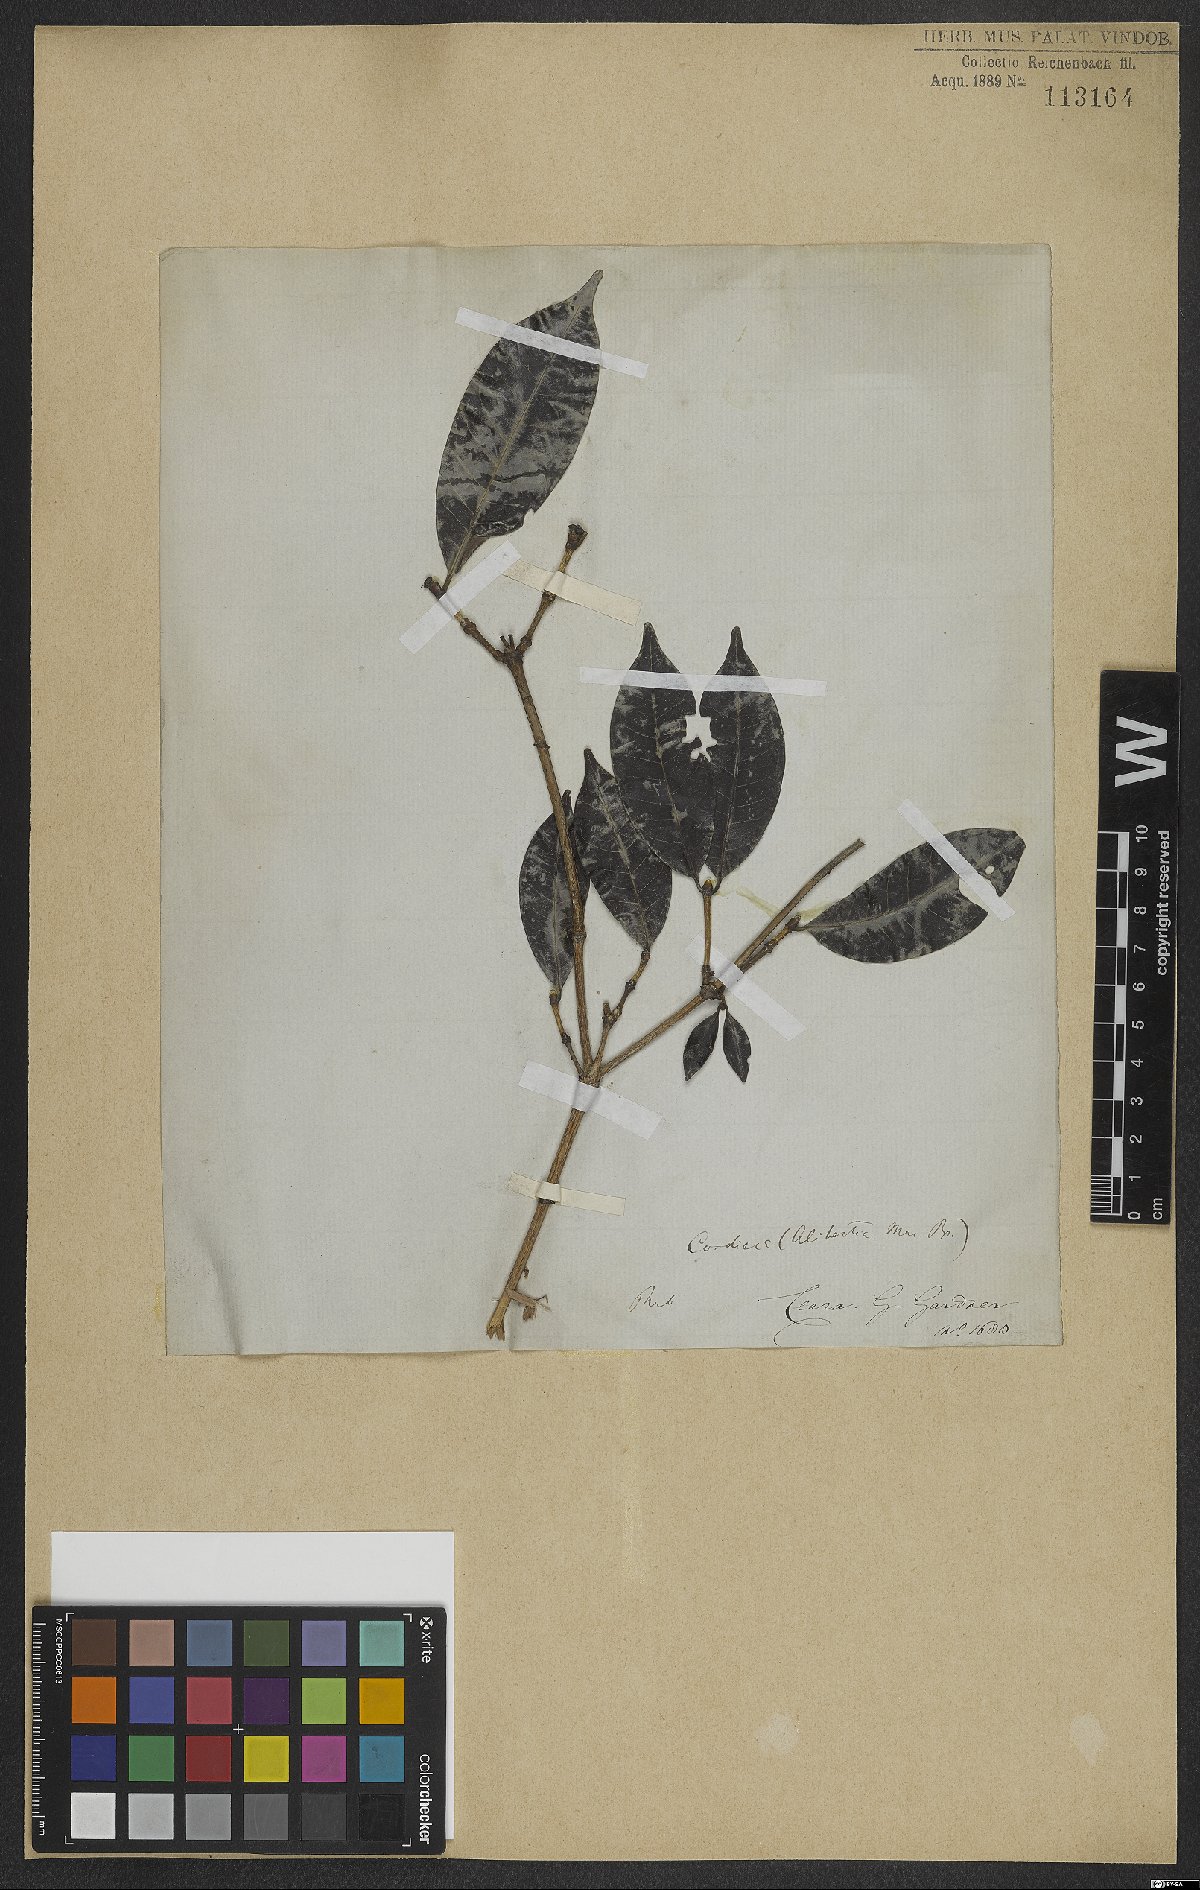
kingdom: Plantae
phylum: Tracheophyta
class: Magnoliopsida
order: Gentianales
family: Rubiaceae
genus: Cordiera
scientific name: Cordiera
